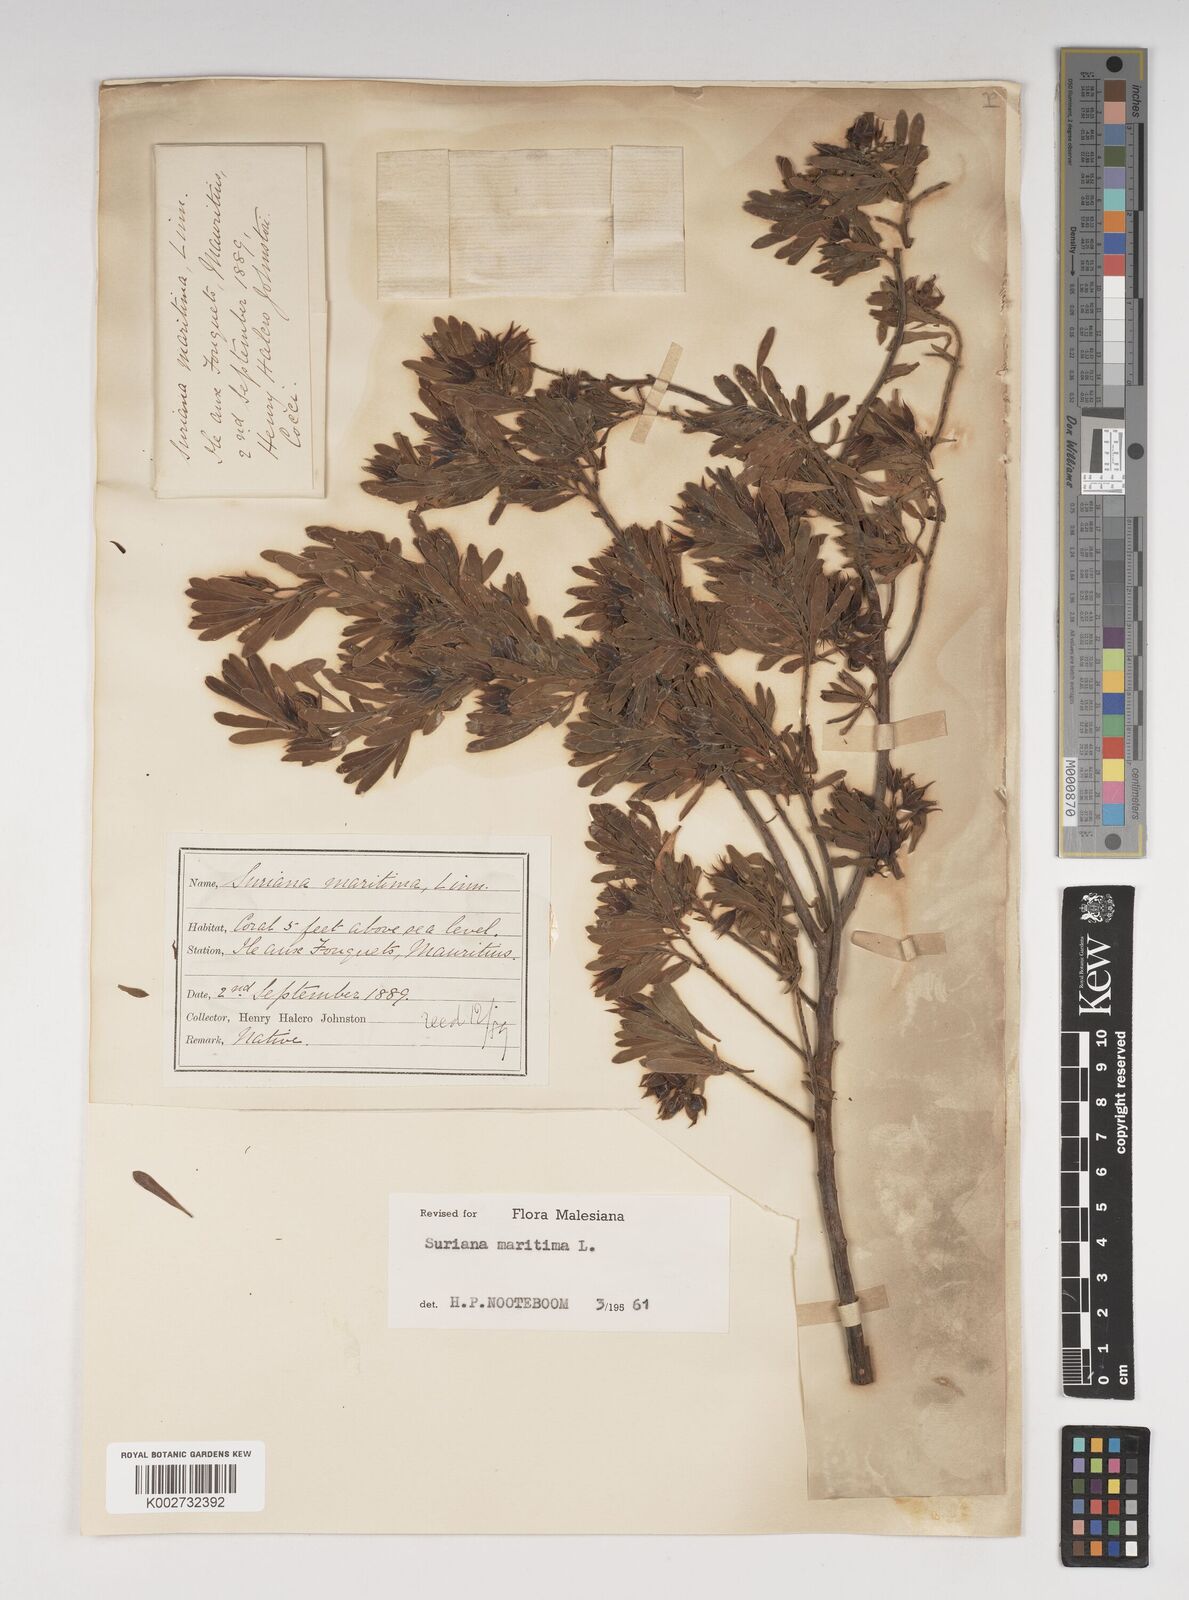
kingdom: Plantae
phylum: Tracheophyta
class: Magnoliopsida
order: Fabales
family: Surianaceae
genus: Suriana
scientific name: Suriana maritima
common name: Bay-cedar
